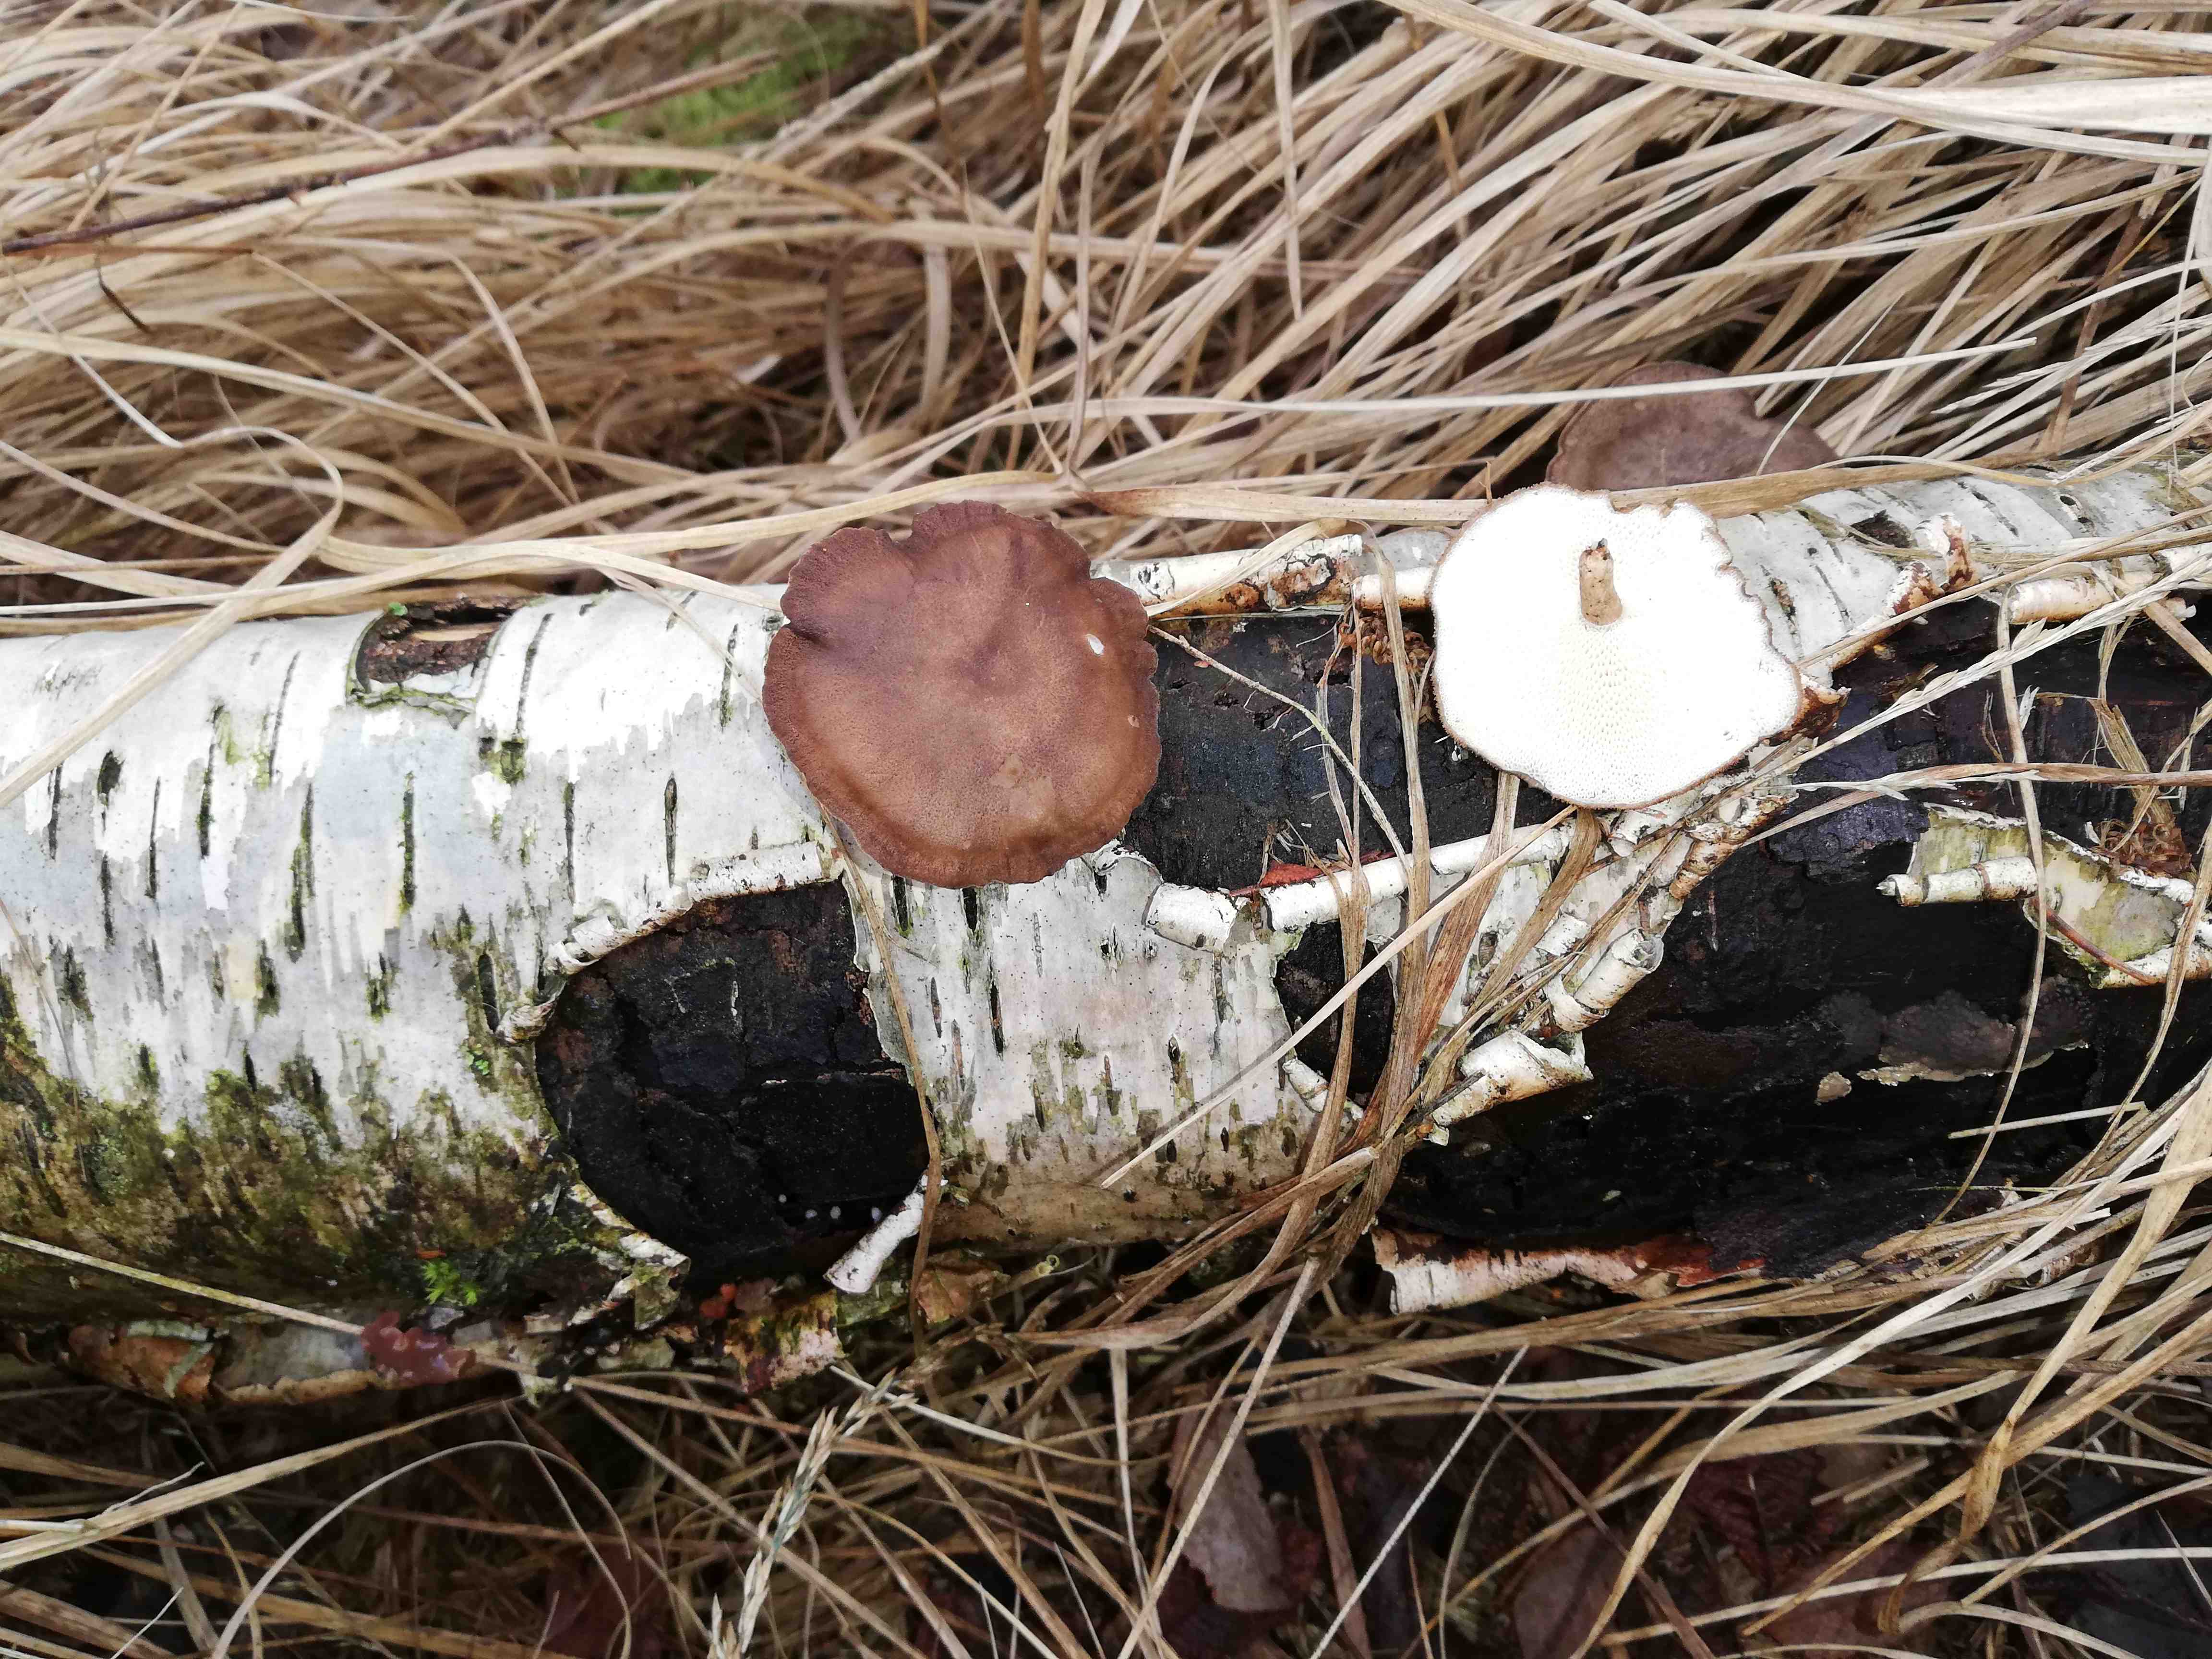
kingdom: Fungi
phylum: Basidiomycota
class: Agaricomycetes
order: Polyporales
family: Polyporaceae
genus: Lentinus
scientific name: Lentinus brumalis
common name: vinter-stilkporesvamp
